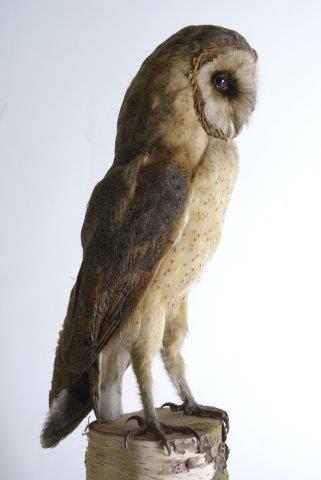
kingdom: Animalia
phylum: Chordata
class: Aves
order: Strigiformes
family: Tytonidae
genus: Tyto
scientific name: Tyto alba
